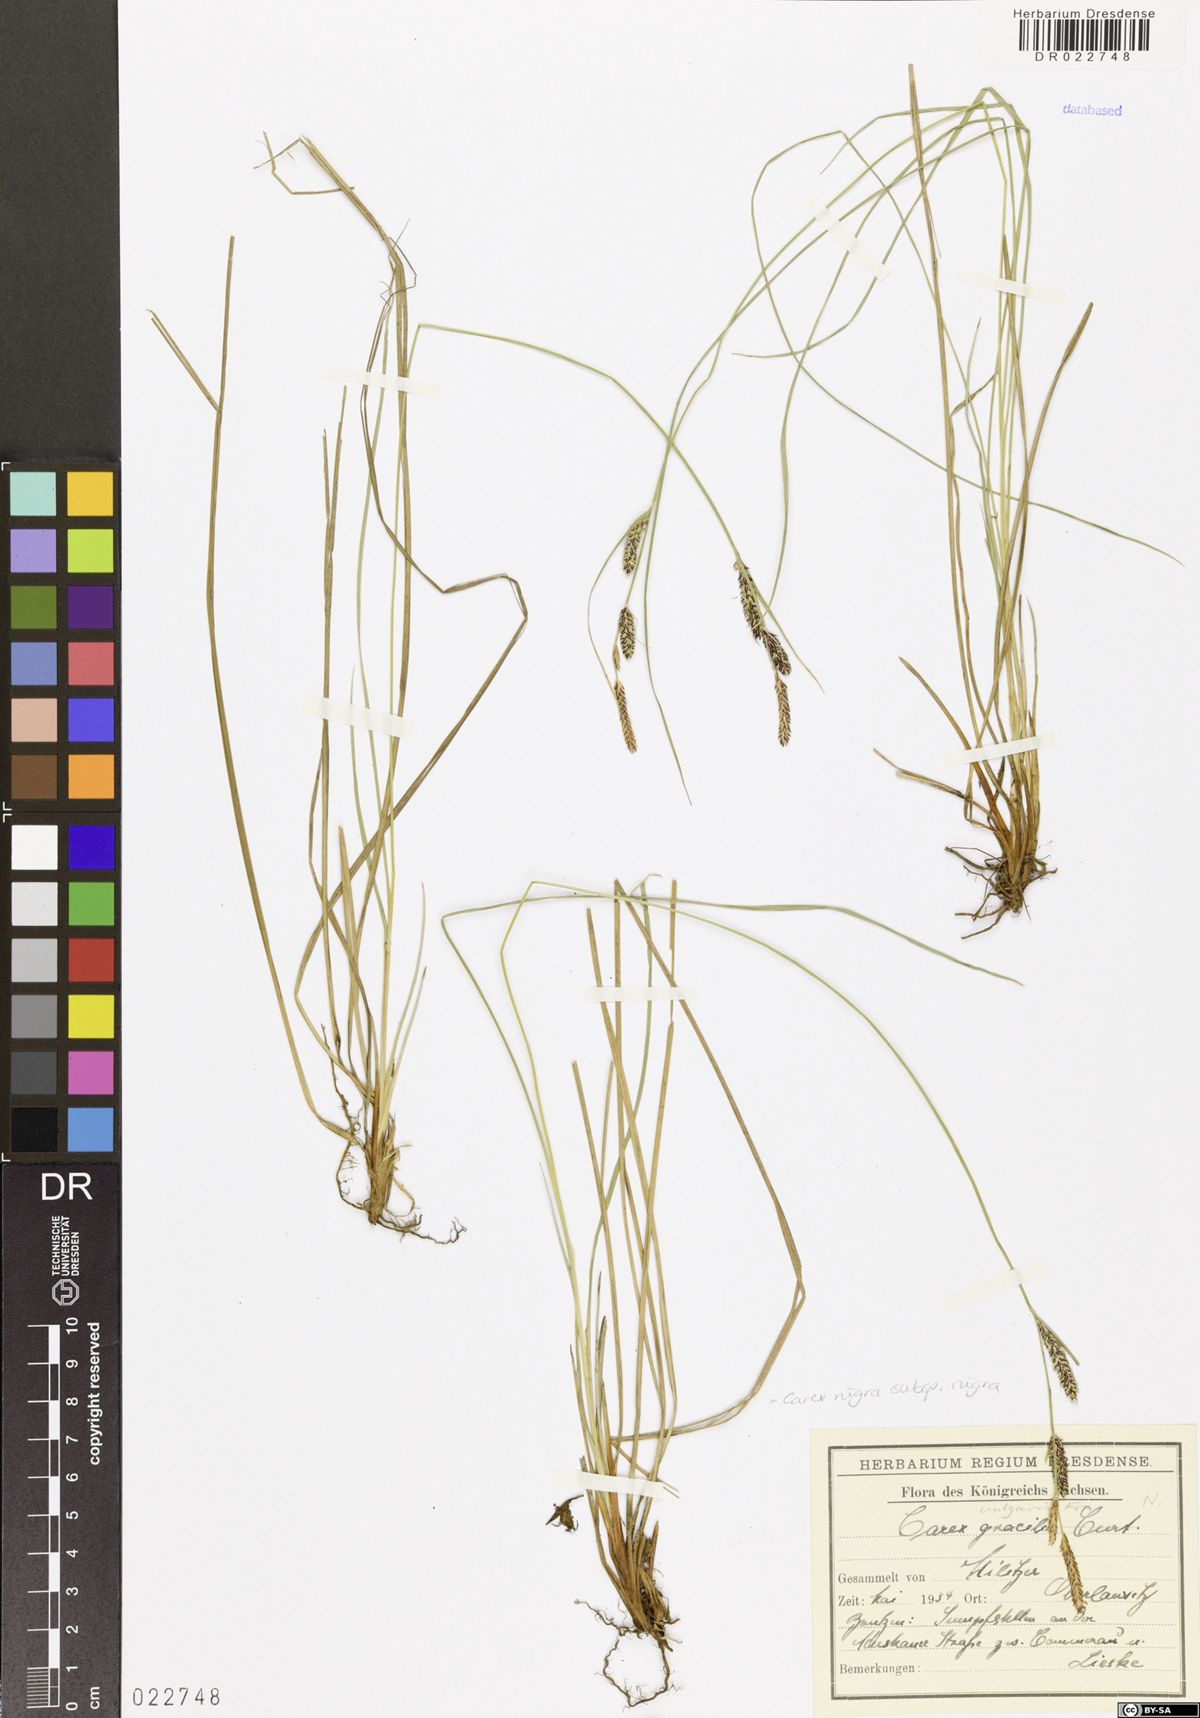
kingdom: Plantae
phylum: Tracheophyta
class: Liliopsida
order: Poales
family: Cyperaceae
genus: Carex
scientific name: Carex nigra
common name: Common sedge
